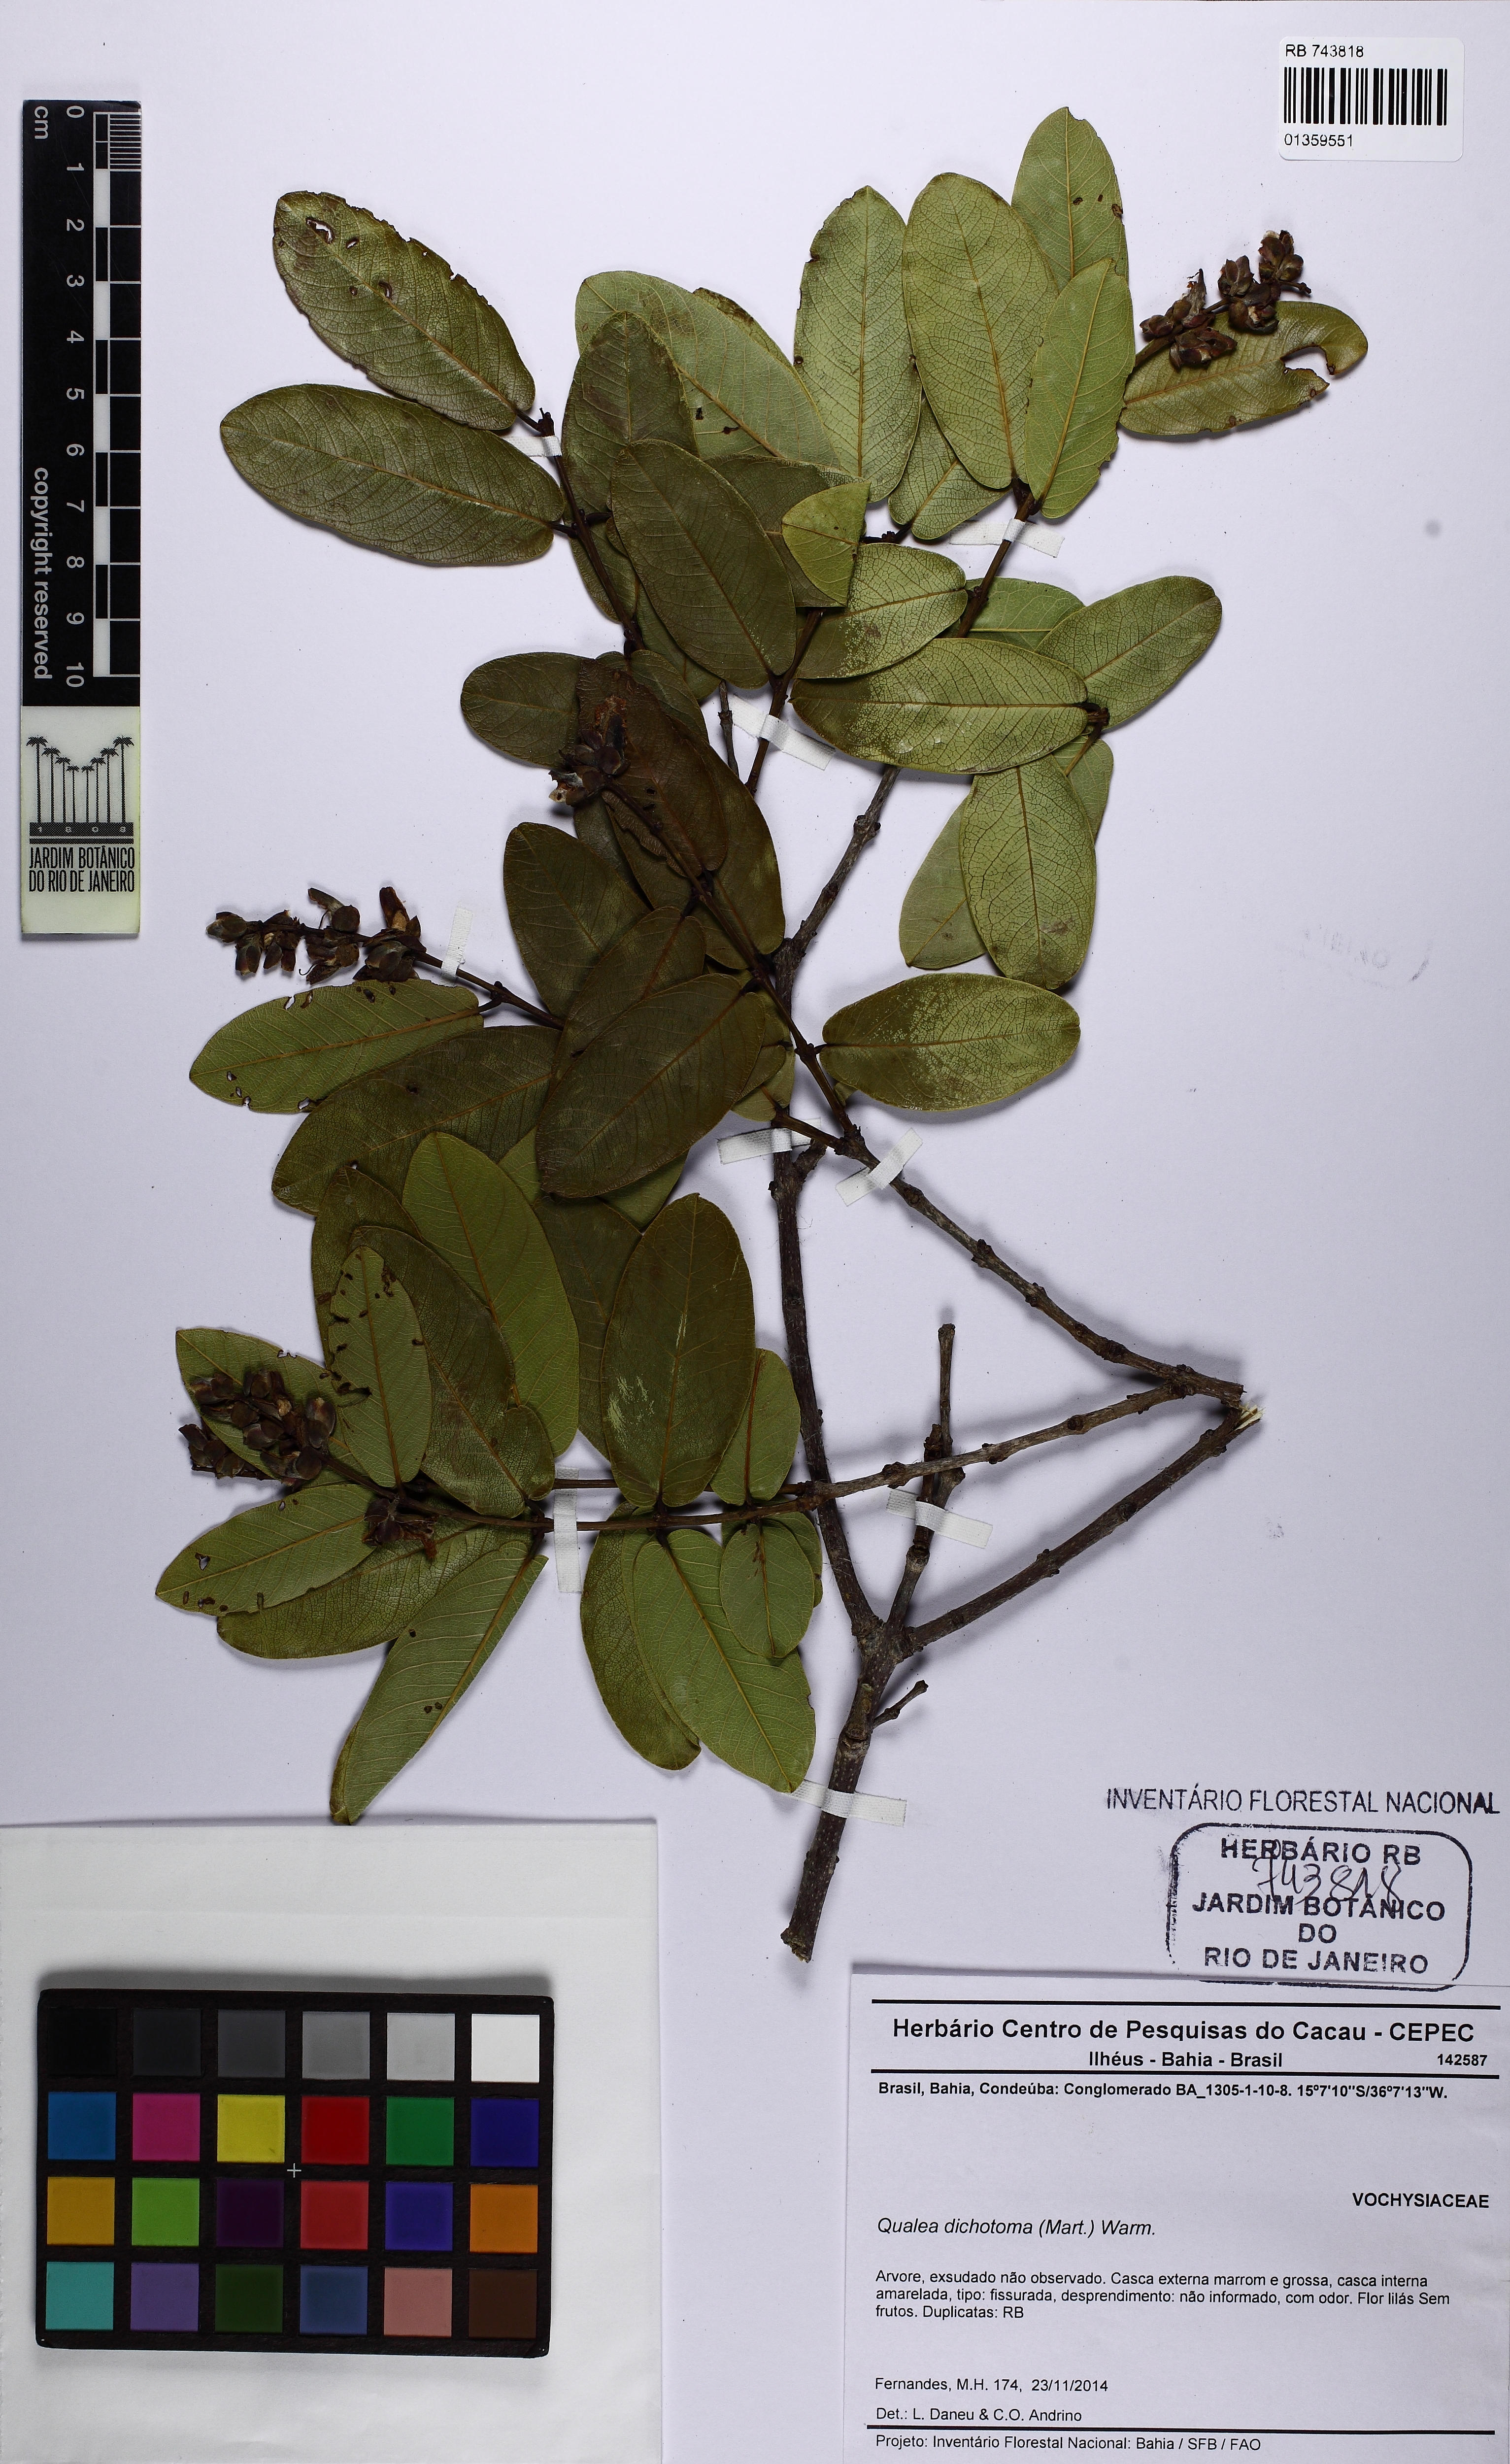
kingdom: Plantae
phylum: Tracheophyta
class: Magnoliopsida
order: Myrtales
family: Vochysiaceae
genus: Qualea
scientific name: Qualea cordata
